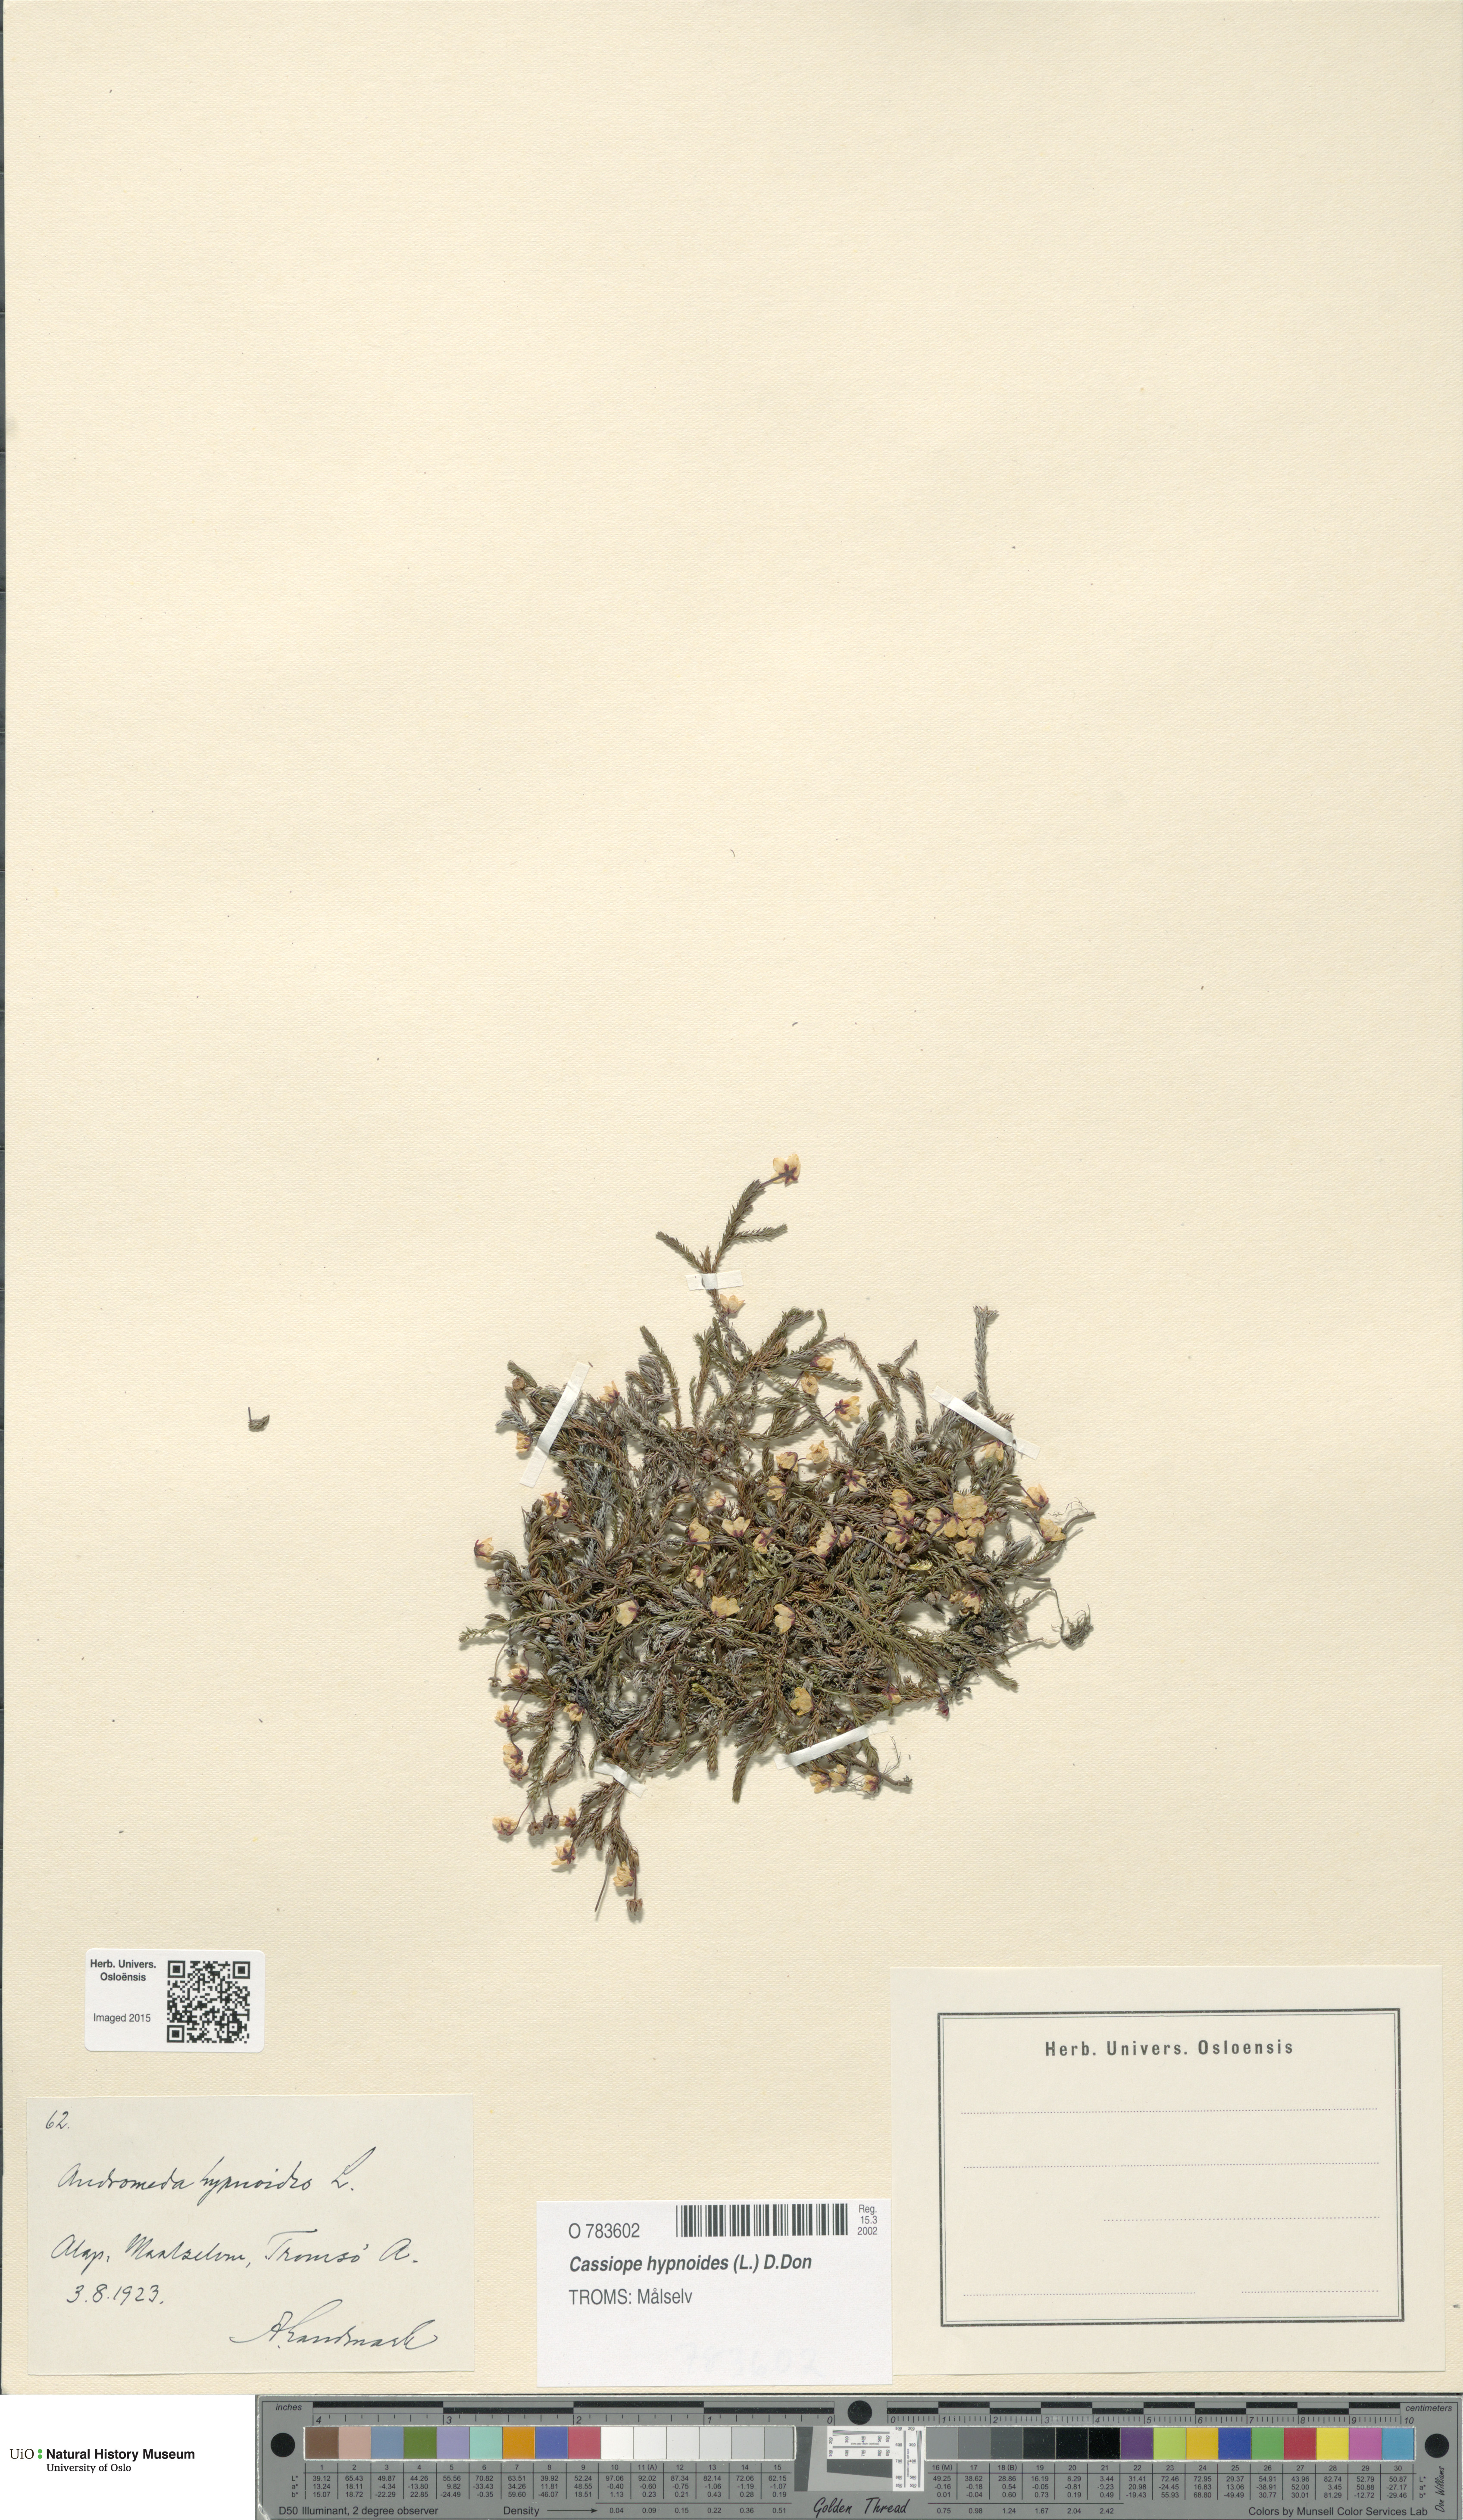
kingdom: Plantae
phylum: Tracheophyta
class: Magnoliopsida
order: Ericales
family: Ericaceae
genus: Harrimanella
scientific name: Harrimanella hypnoides
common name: Moss bell heather
